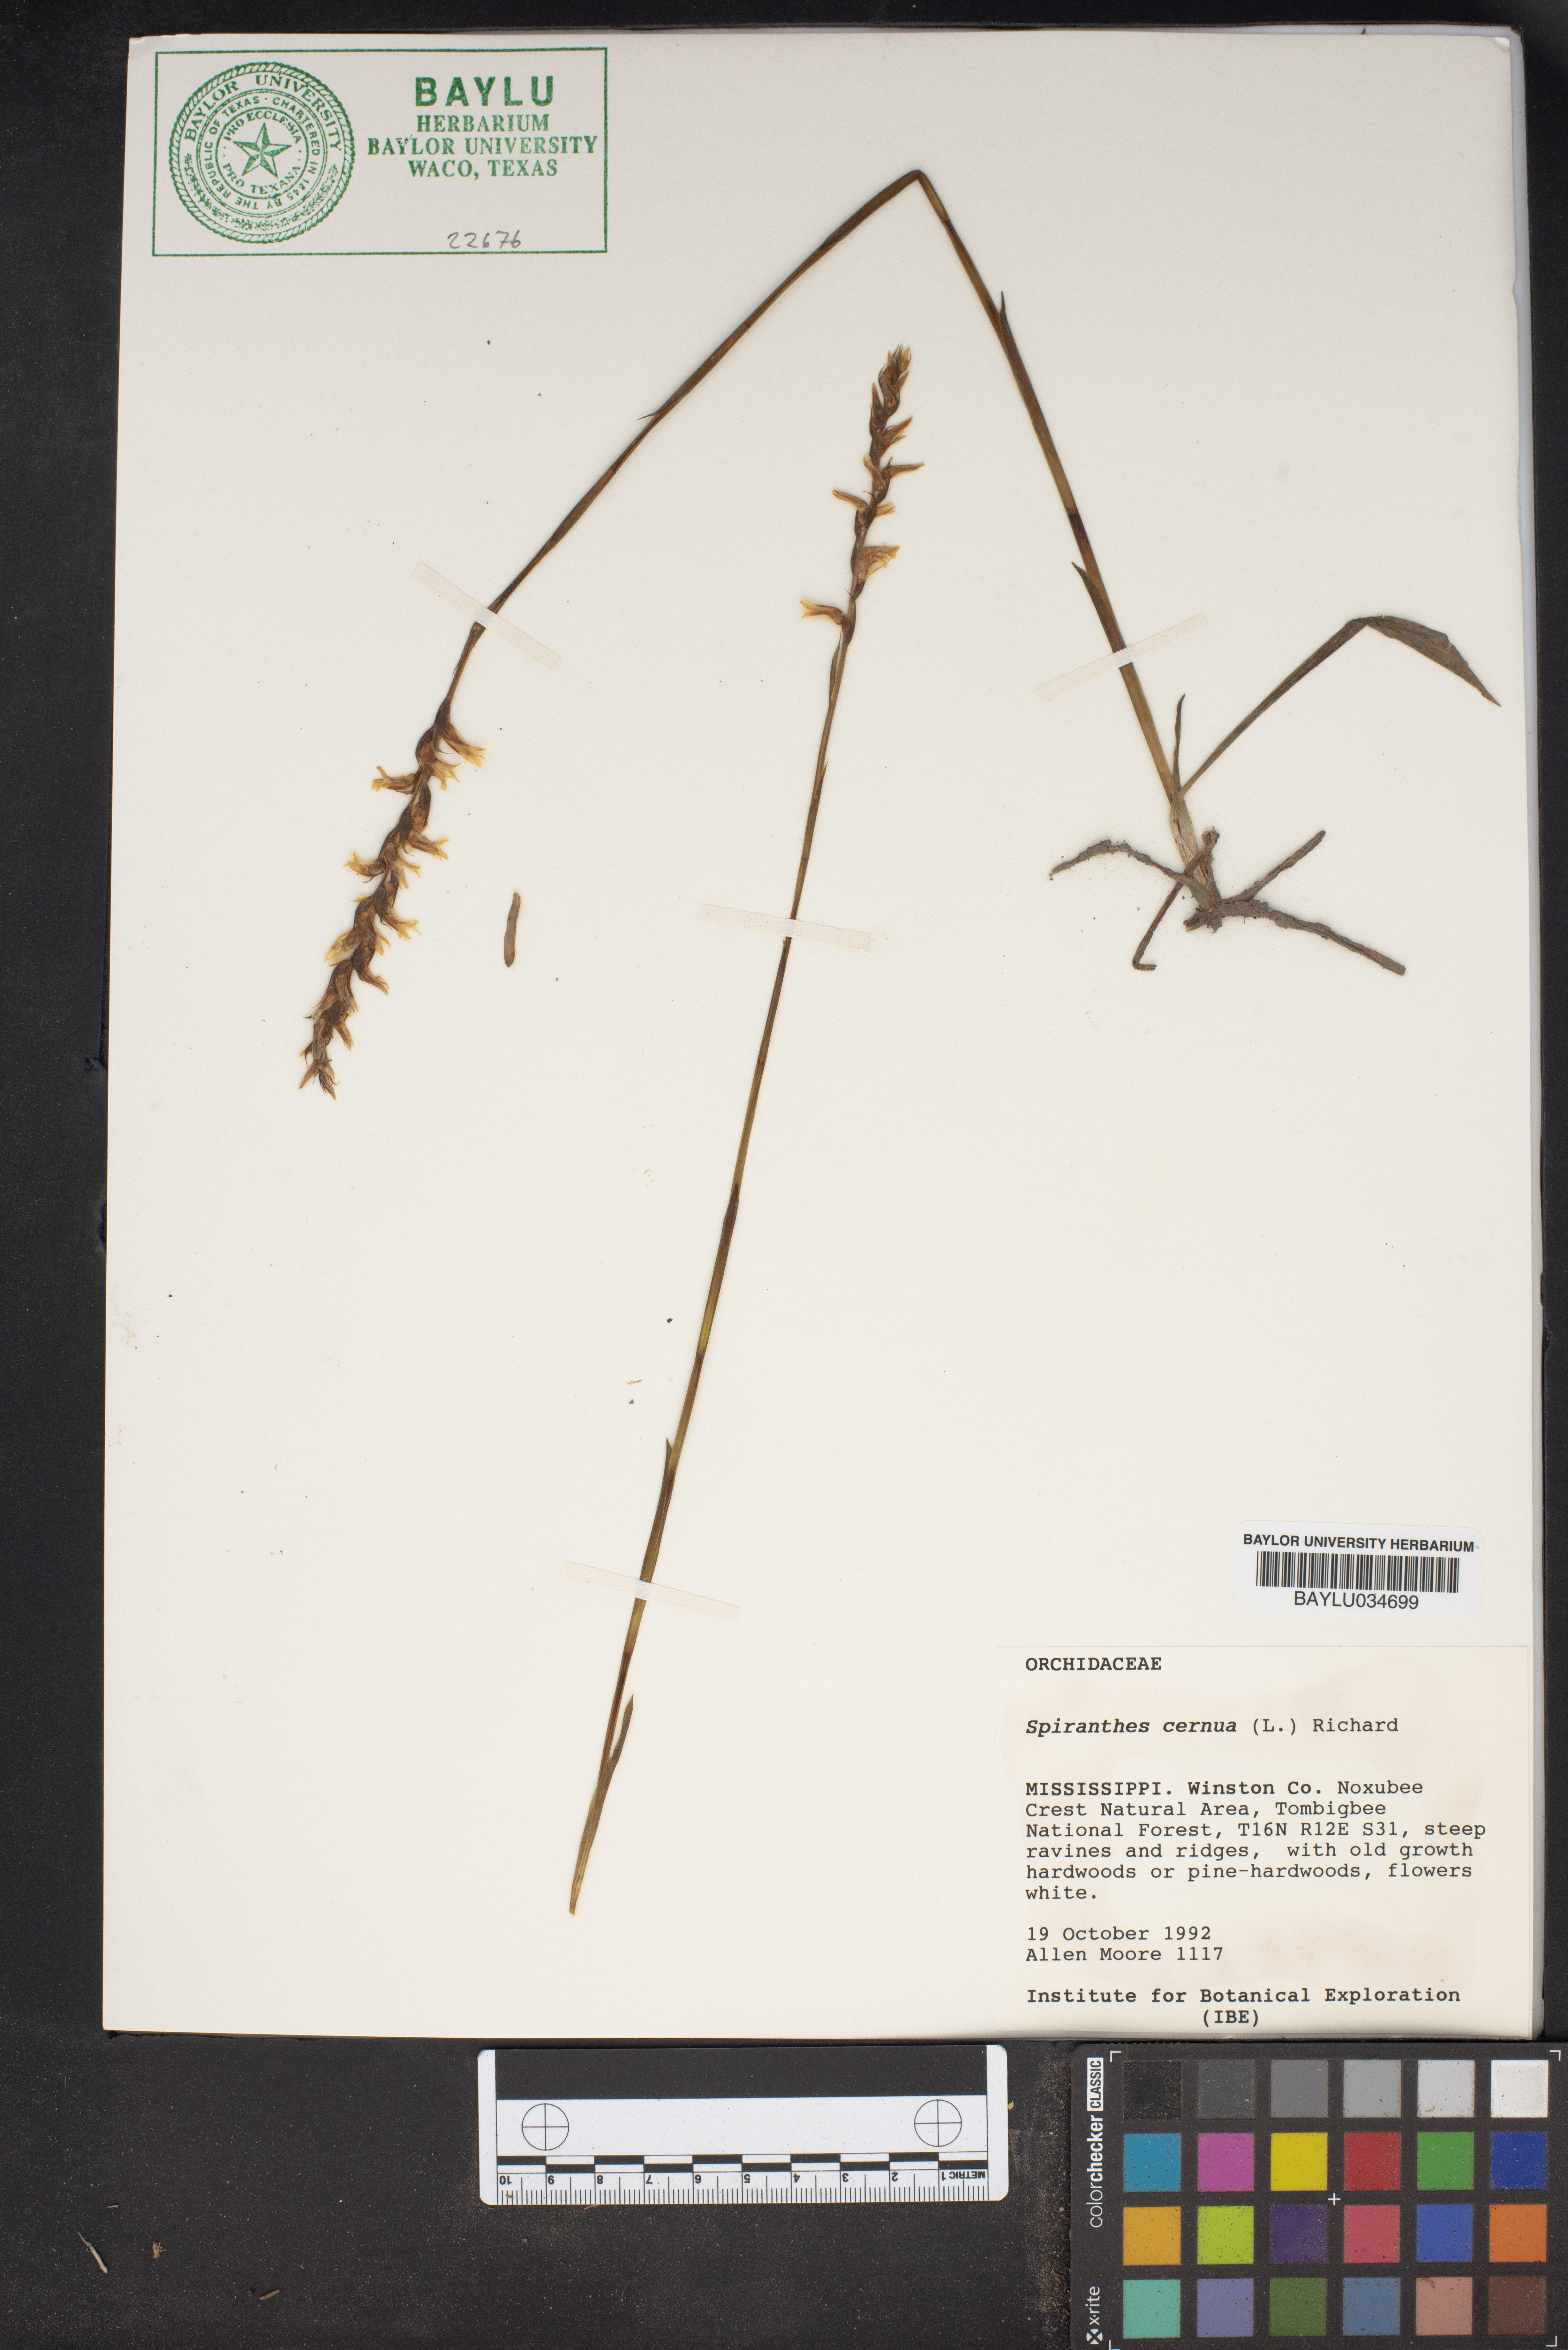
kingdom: Plantae
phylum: Tracheophyta
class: Liliopsida
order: Asparagales
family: Orchidaceae
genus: Spiranthes
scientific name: Spiranthes cernua
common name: Dropping ladies'-tresses
